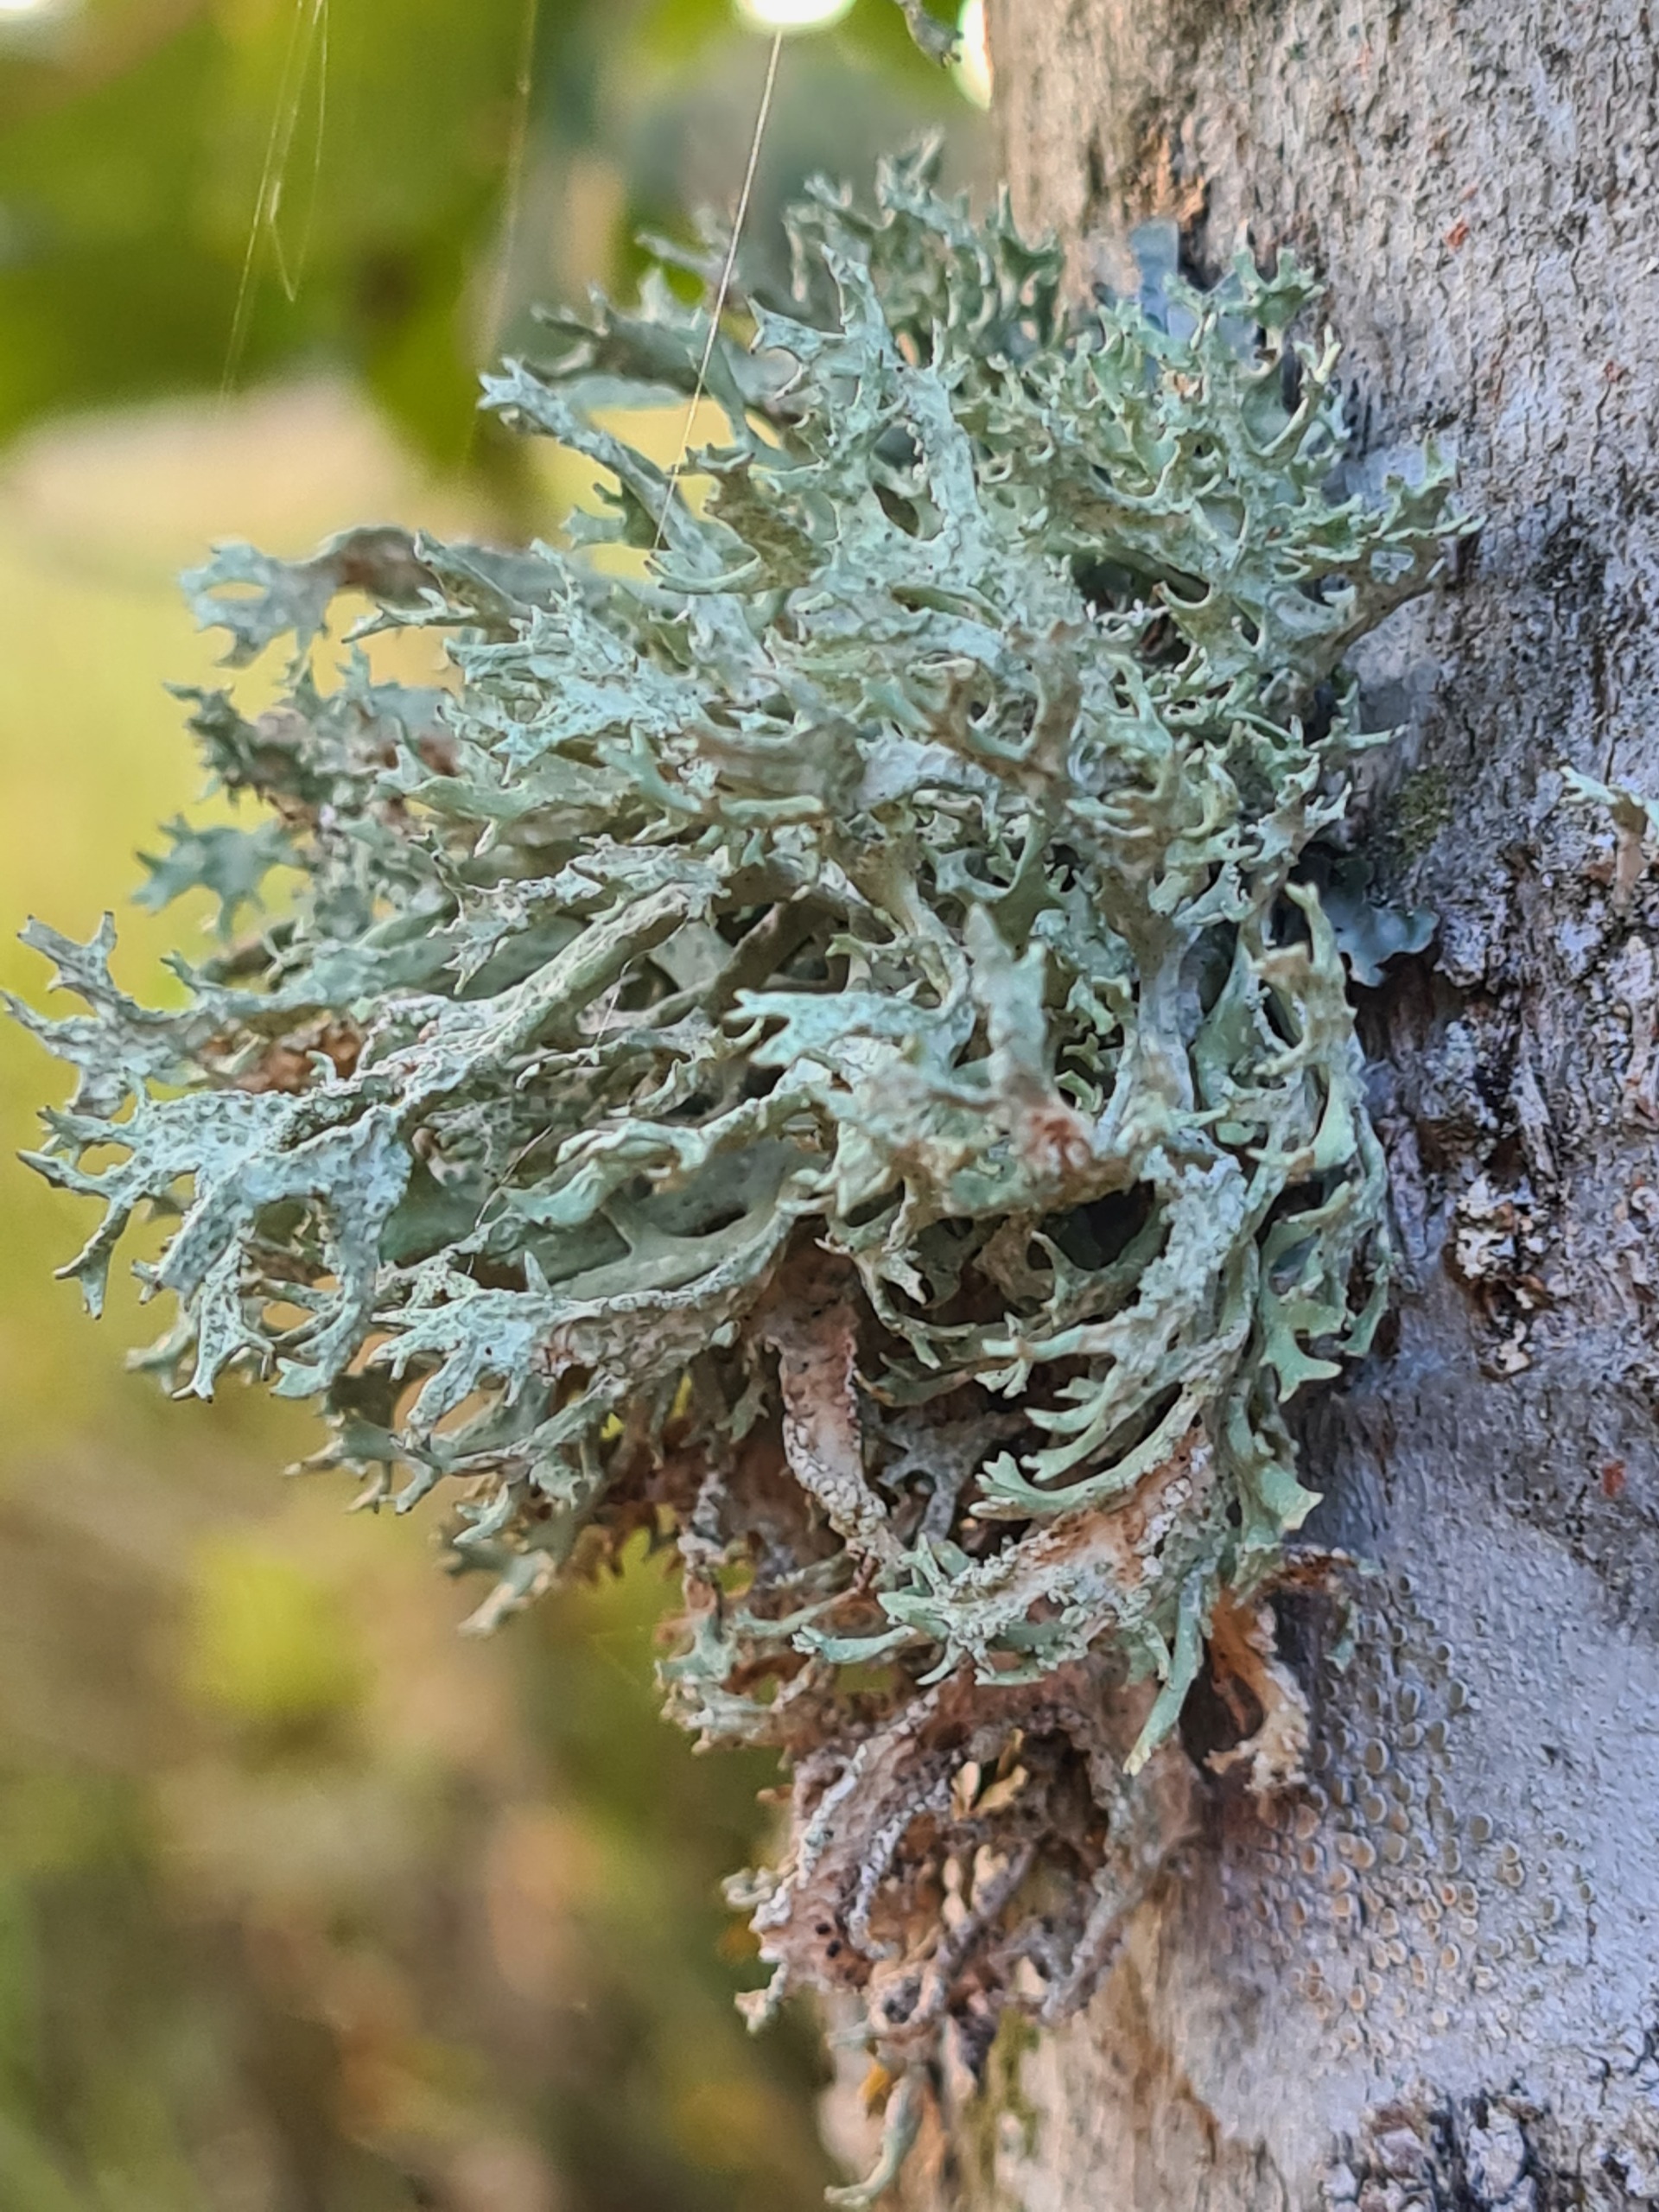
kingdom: Fungi
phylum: Ascomycota
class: Lecanoromycetes
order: Lecanorales
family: Parmeliaceae
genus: Evernia
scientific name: Evernia prunastri
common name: Almindelig slåenlav
